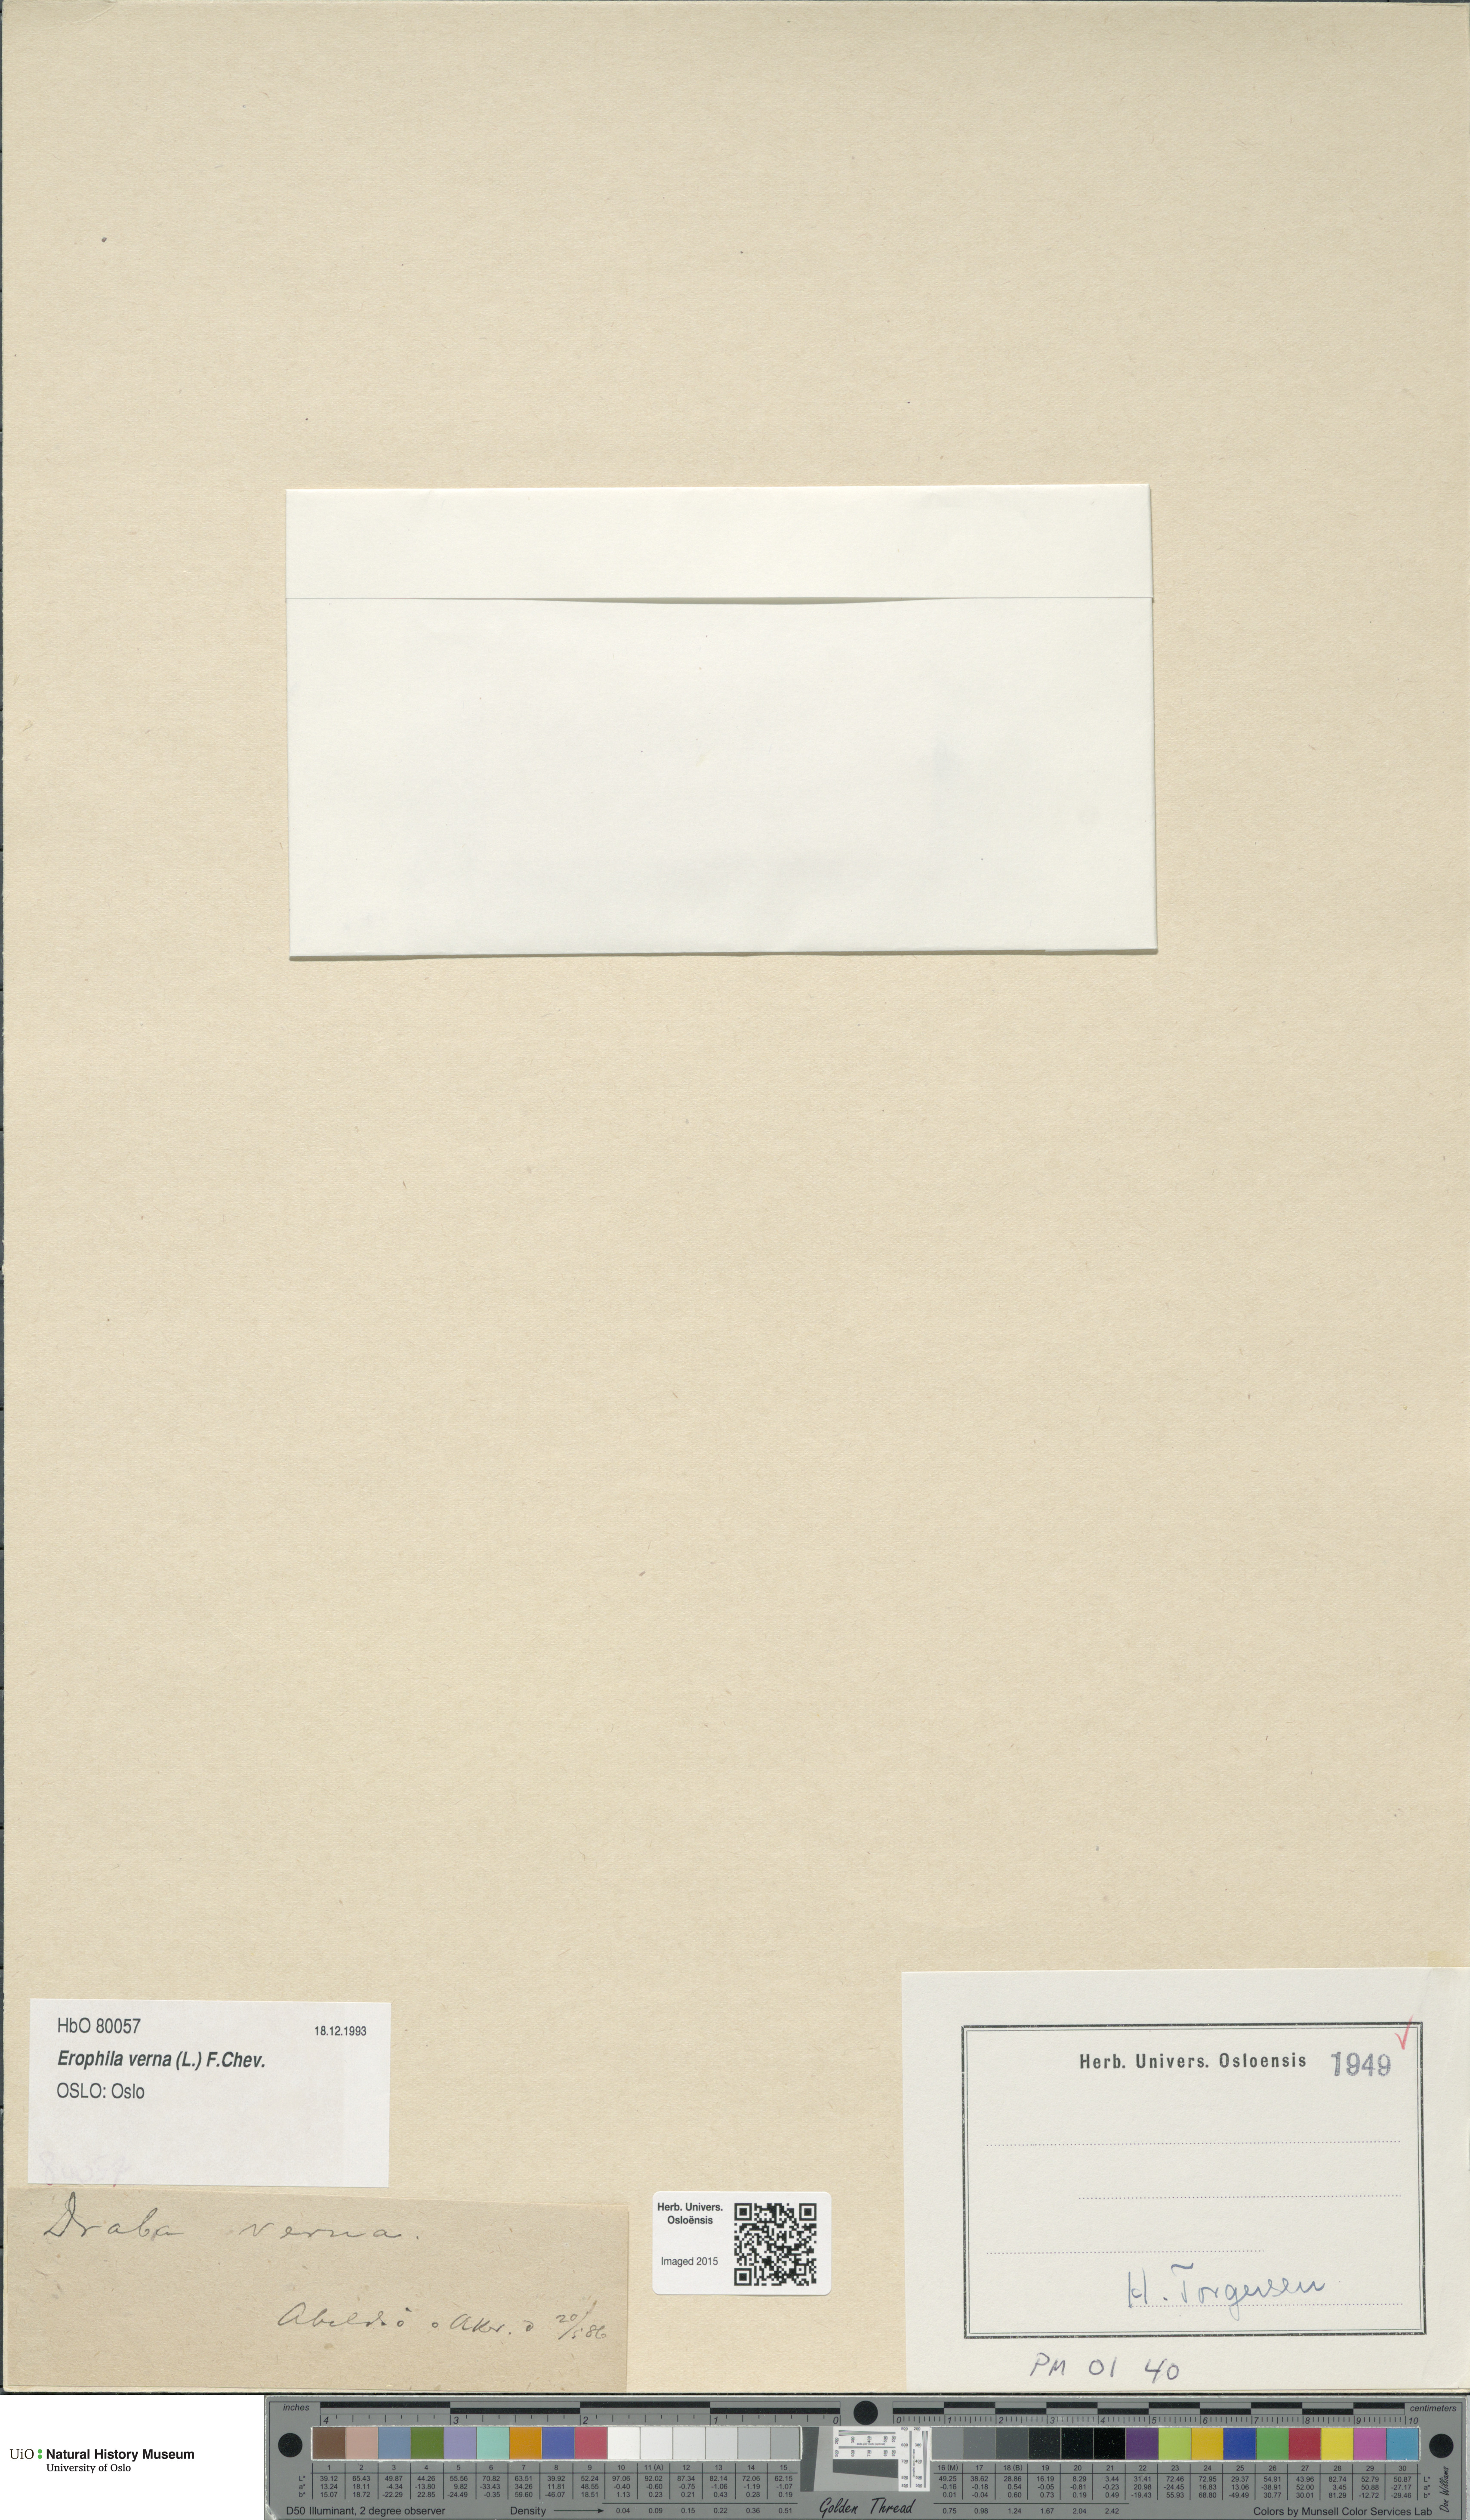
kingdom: Plantae
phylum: Tracheophyta
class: Magnoliopsida
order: Brassicales
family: Brassicaceae
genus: Draba
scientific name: Draba verna
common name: Spring draba
